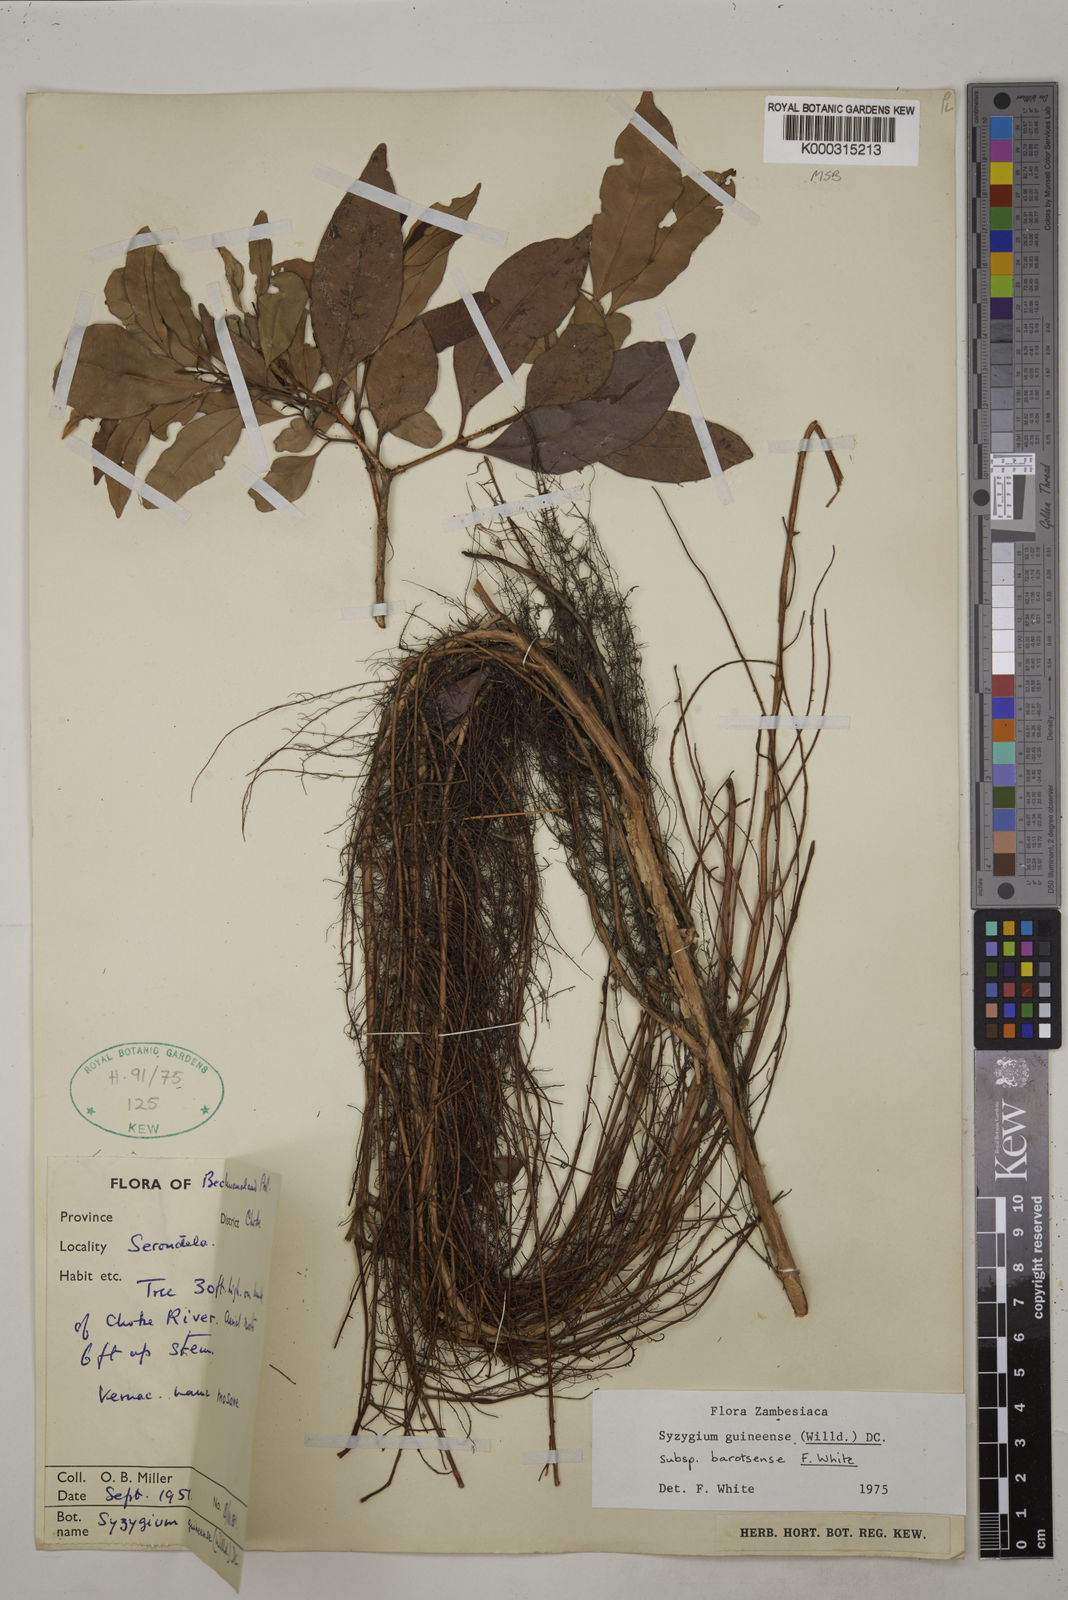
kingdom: Plantae
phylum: Tracheophyta
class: Magnoliopsida
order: Myrtales
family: Myrtaceae
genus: Syzygium
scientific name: Syzygium guineense
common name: Water-pear
